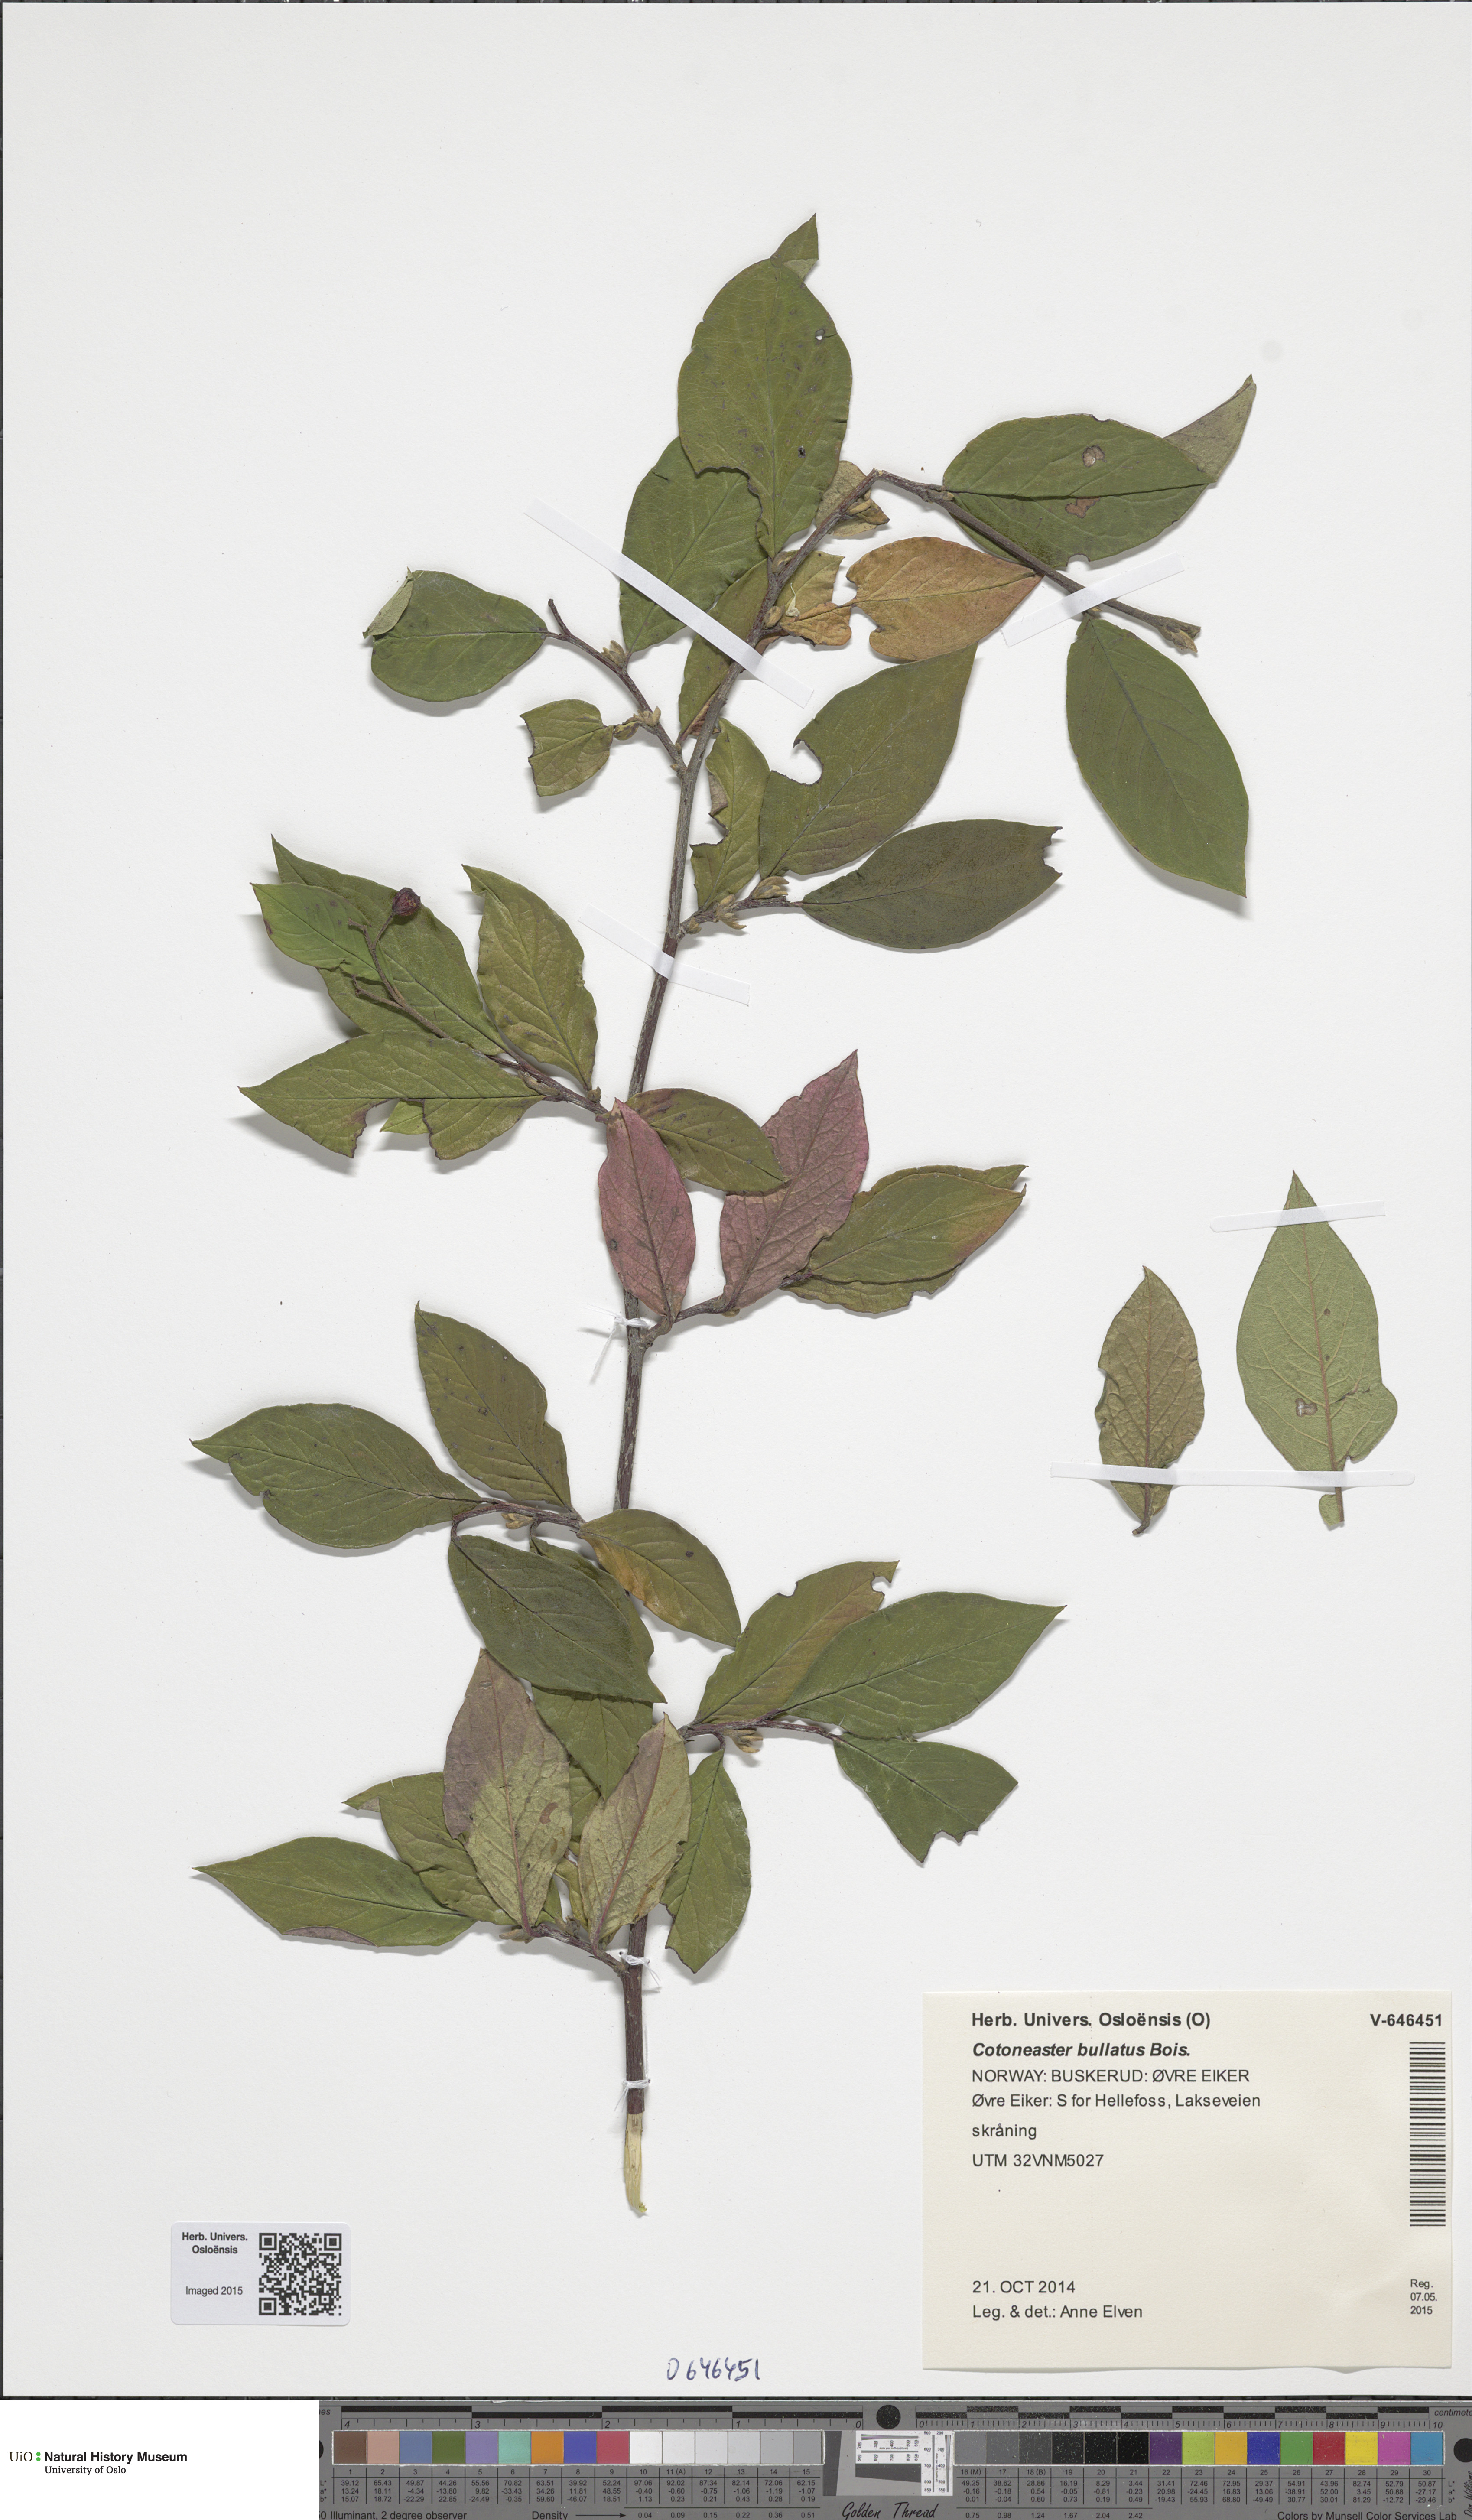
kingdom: Plantae
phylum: Tracheophyta
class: Magnoliopsida
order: Rosales
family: Rosaceae
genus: Cotoneaster
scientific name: Cotoneaster bullatus
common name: Hollyberry cotoneaster
